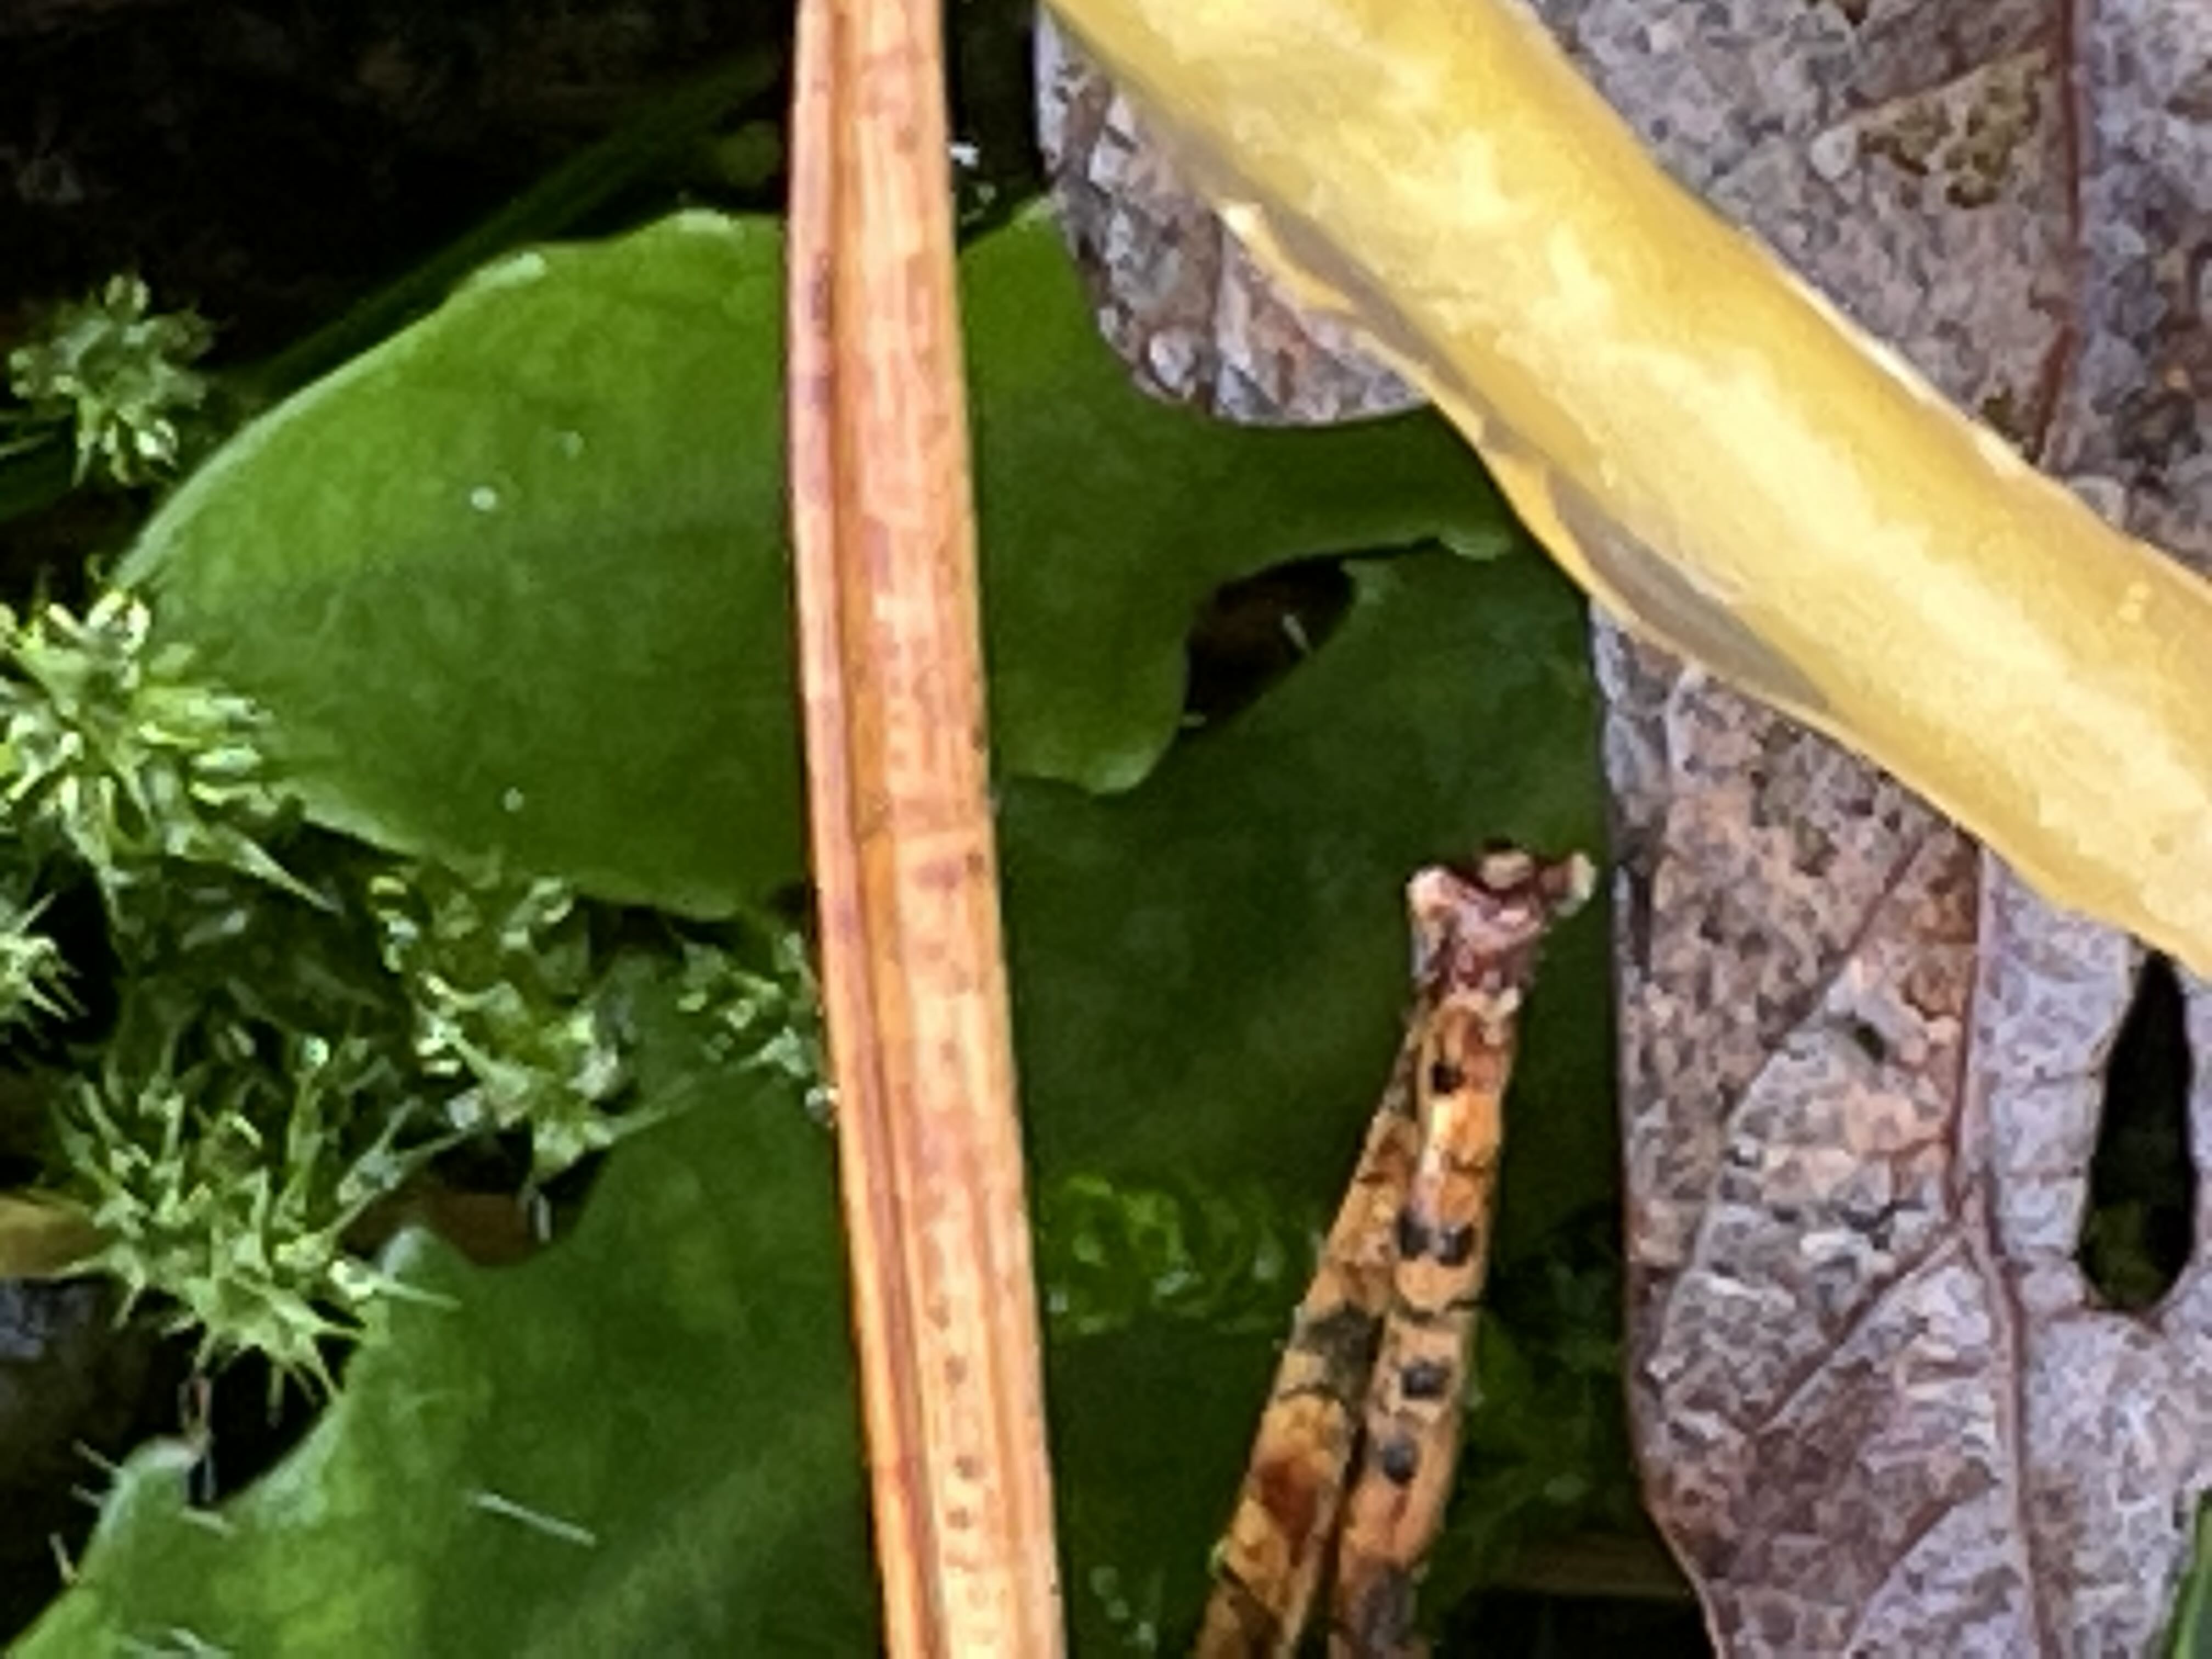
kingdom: Fungi
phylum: Basidiomycota
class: Agaricomycetes
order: Agaricales
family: Hygrophoraceae
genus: Gliophorus
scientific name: Gliophorus laetus
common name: brusk-vokshat
